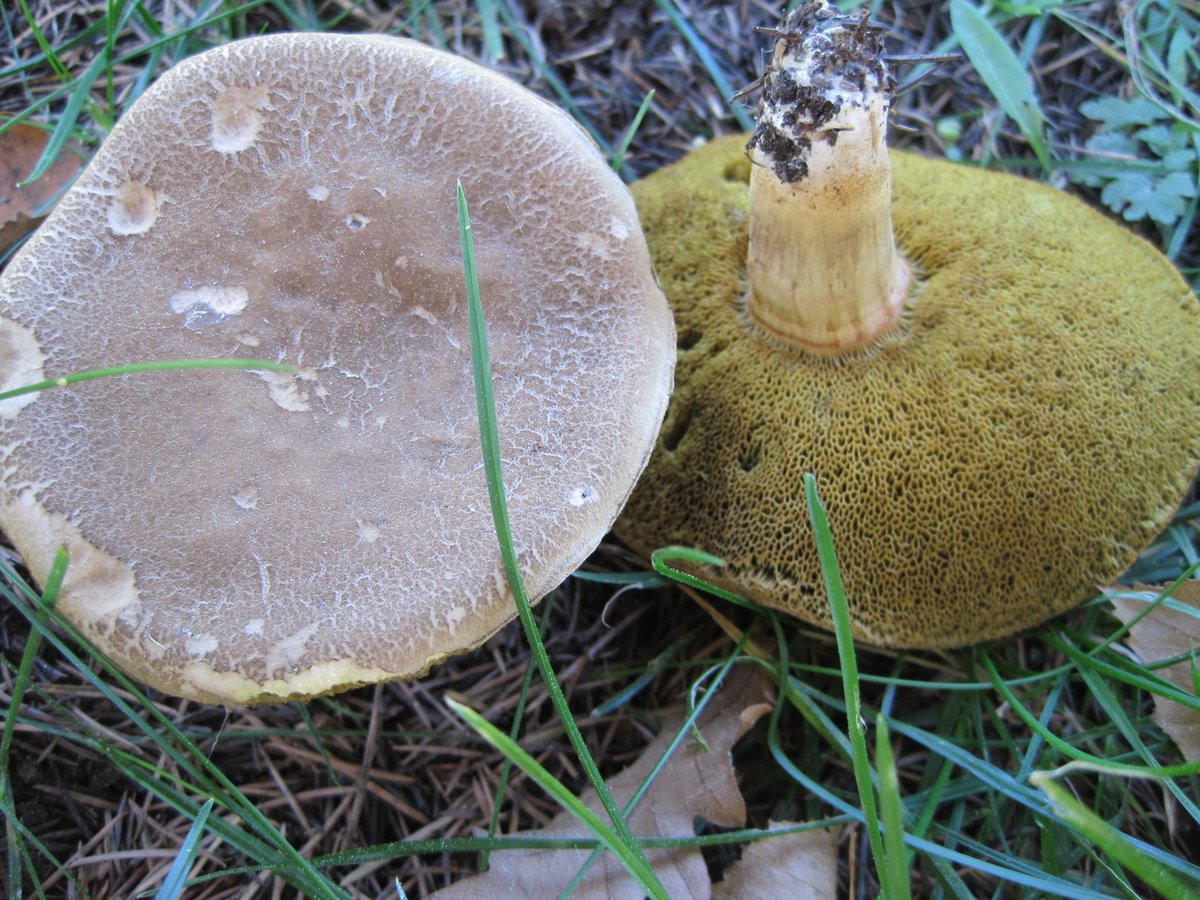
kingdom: Fungi
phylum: Basidiomycota
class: Agaricomycetes
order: Boletales
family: Boletaceae
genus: Xerocomellus
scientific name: Xerocomellus porosporus
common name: hvidsprukken rørhat
